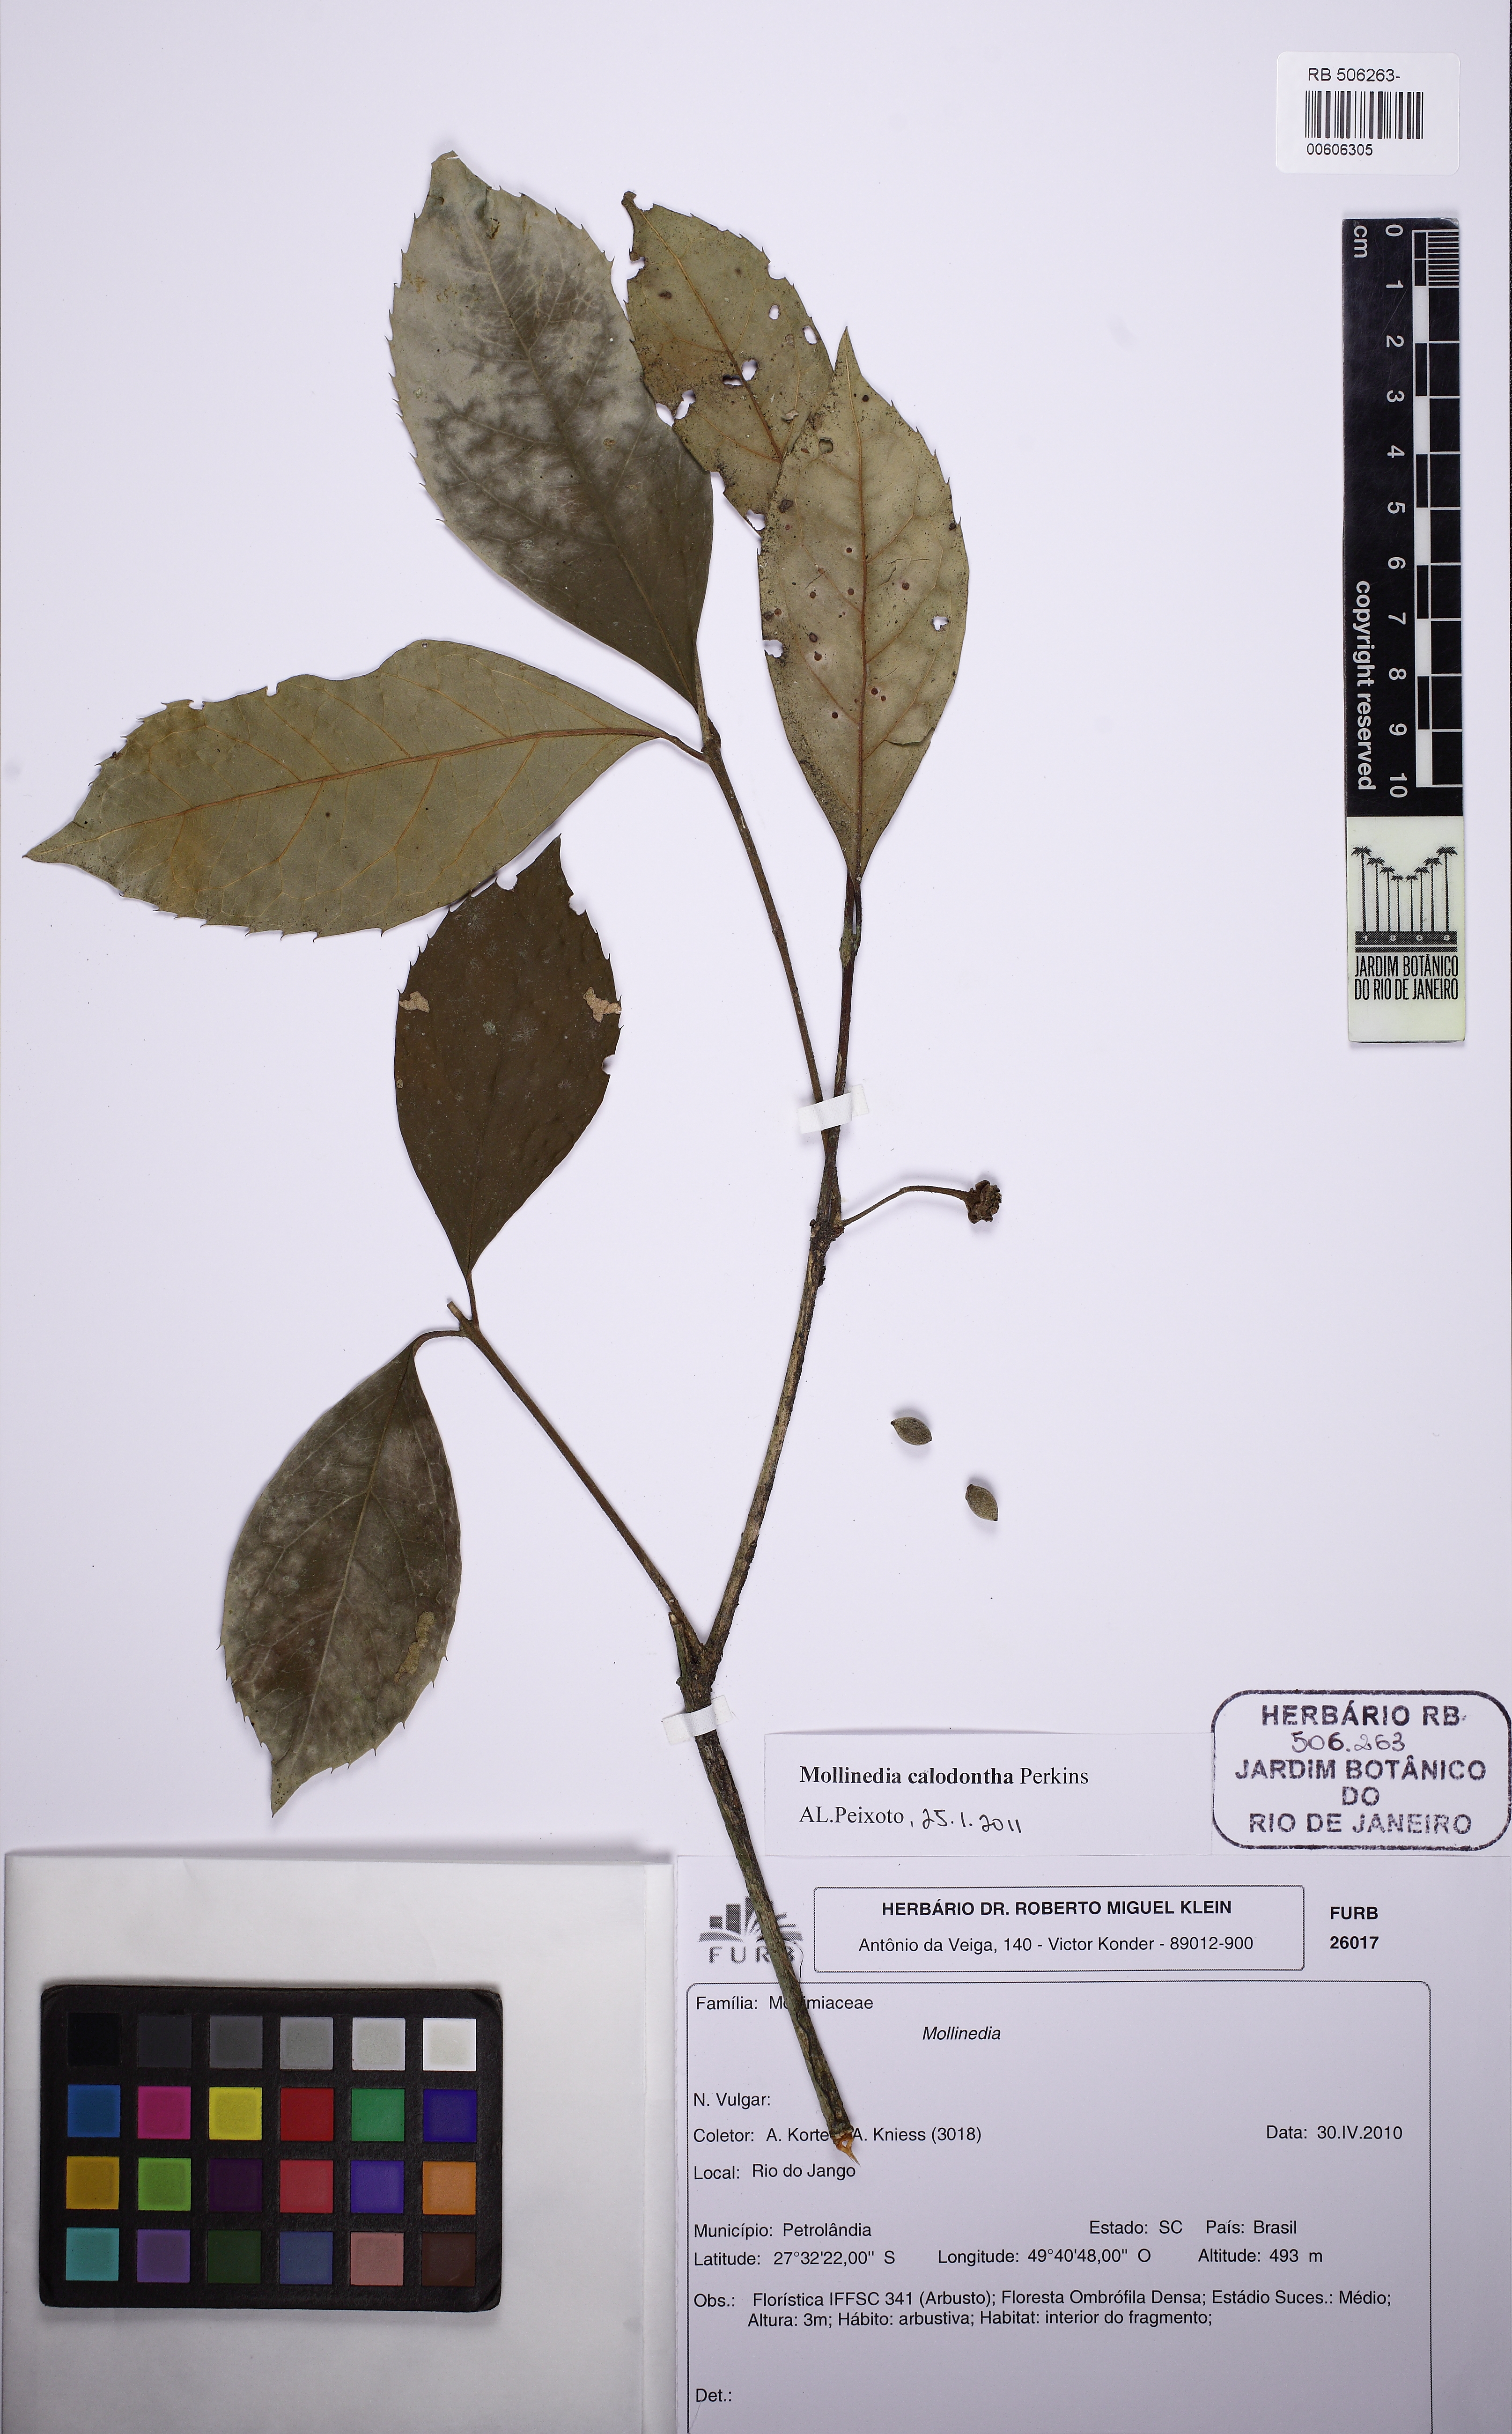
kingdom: Plantae
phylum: Tracheophyta
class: Magnoliopsida
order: Laurales
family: Monimiaceae
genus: Mollinedia
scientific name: Mollinedia calodonta
